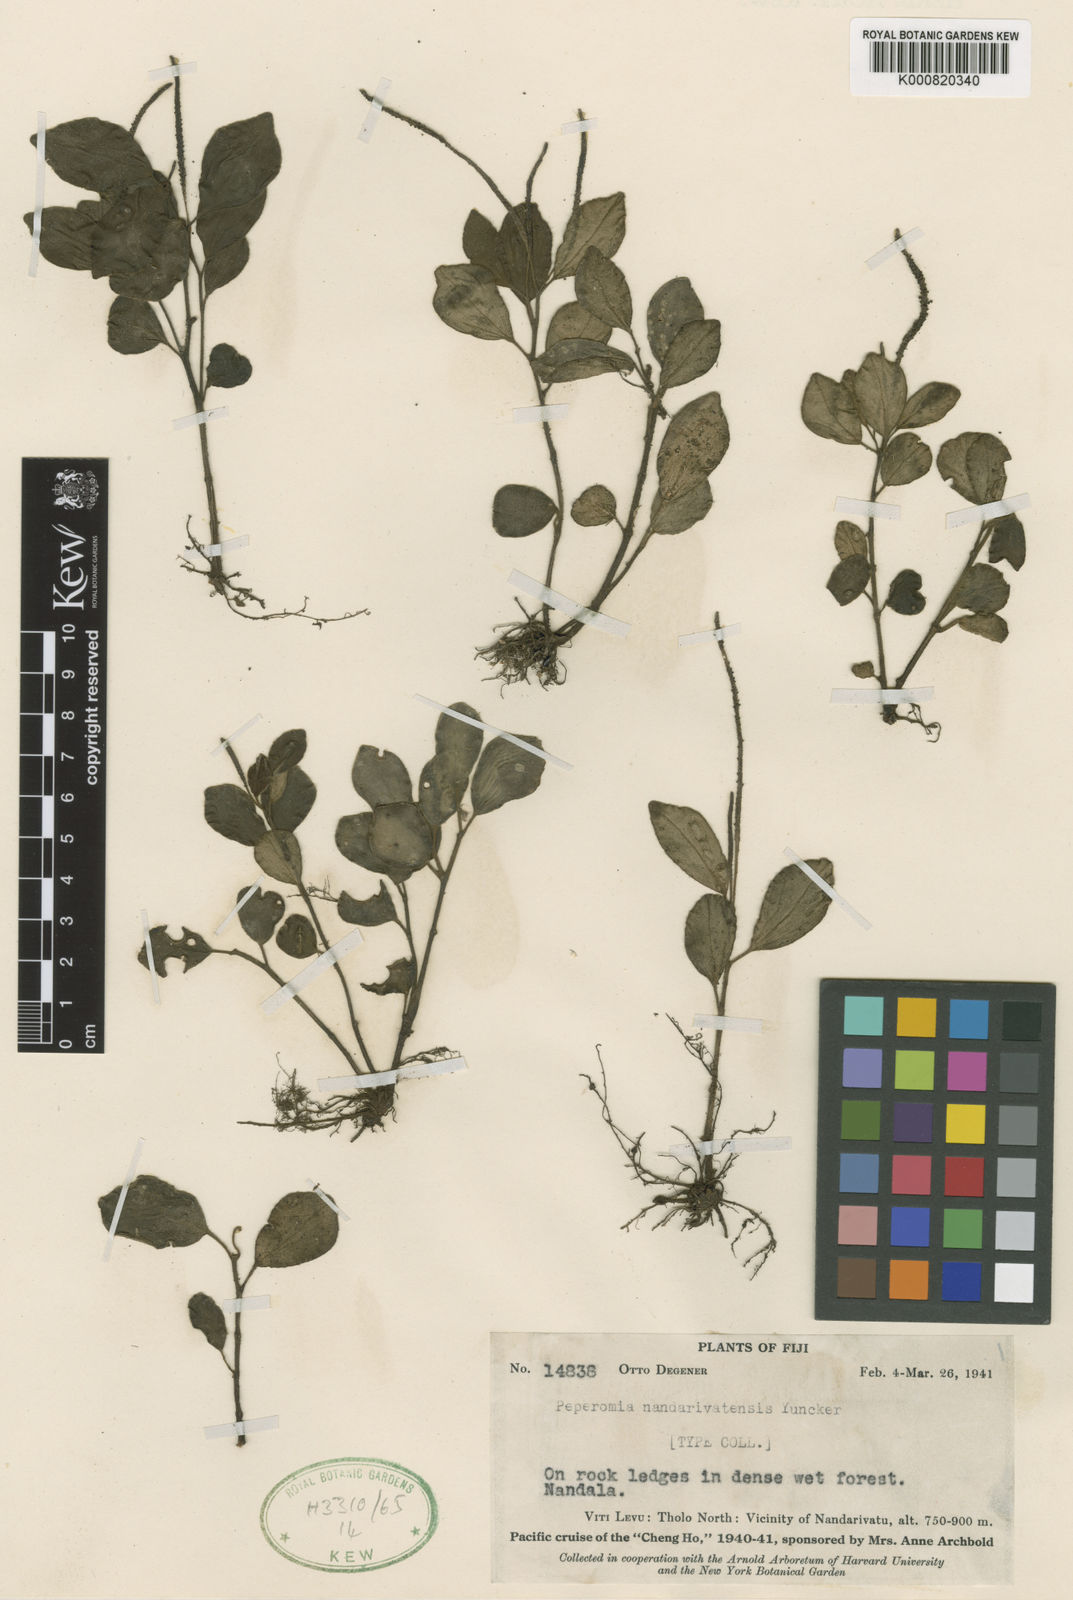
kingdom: Plantae
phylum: Tracheophyta
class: Magnoliopsida
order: Piperales
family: Piperaceae
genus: Peperomia
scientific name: Peperomia nandarivatensis
